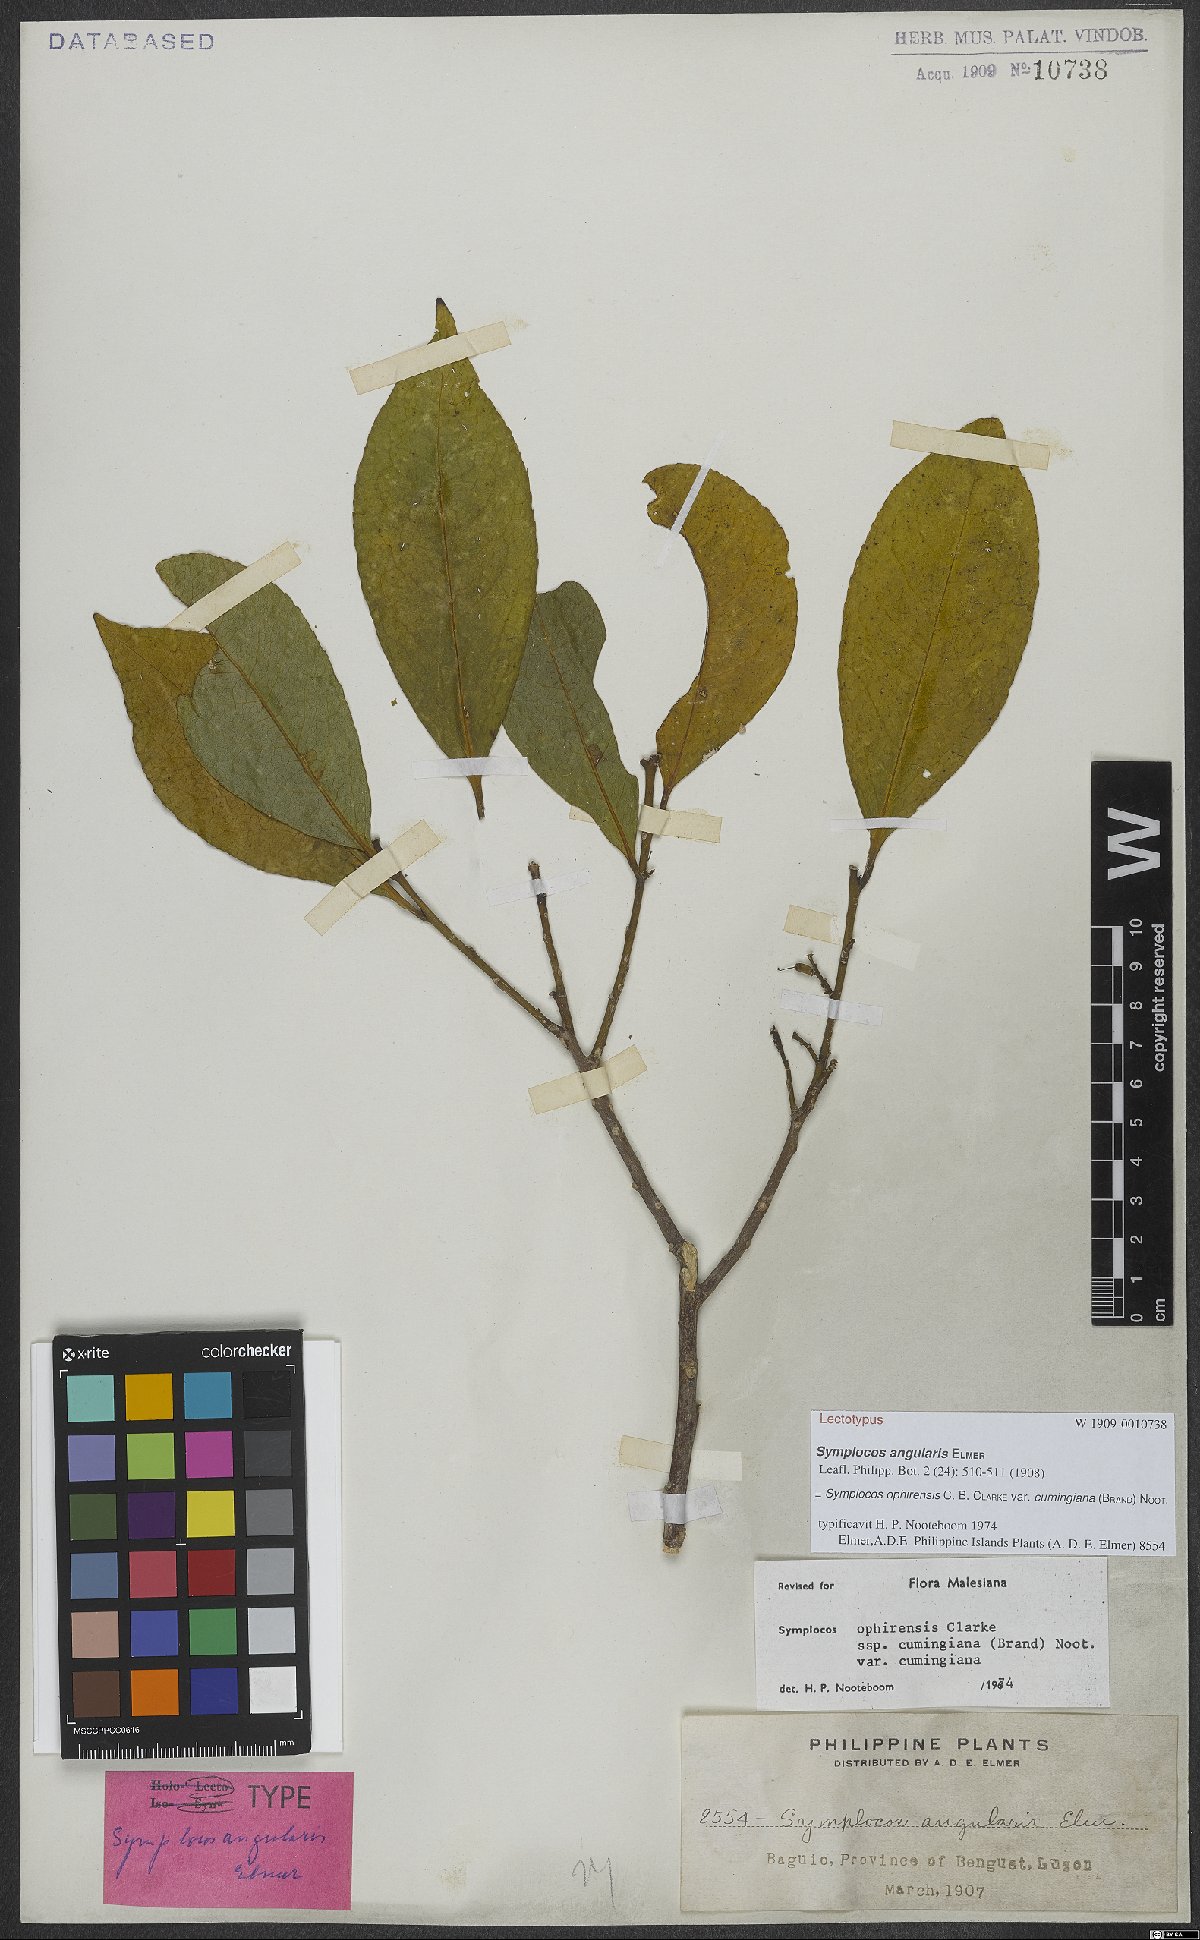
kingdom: Plantae
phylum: Tracheophyta
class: Magnoliopsida
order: Ericales
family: Symplocaceae
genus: Symplocos
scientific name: Symplocos ophirensis
